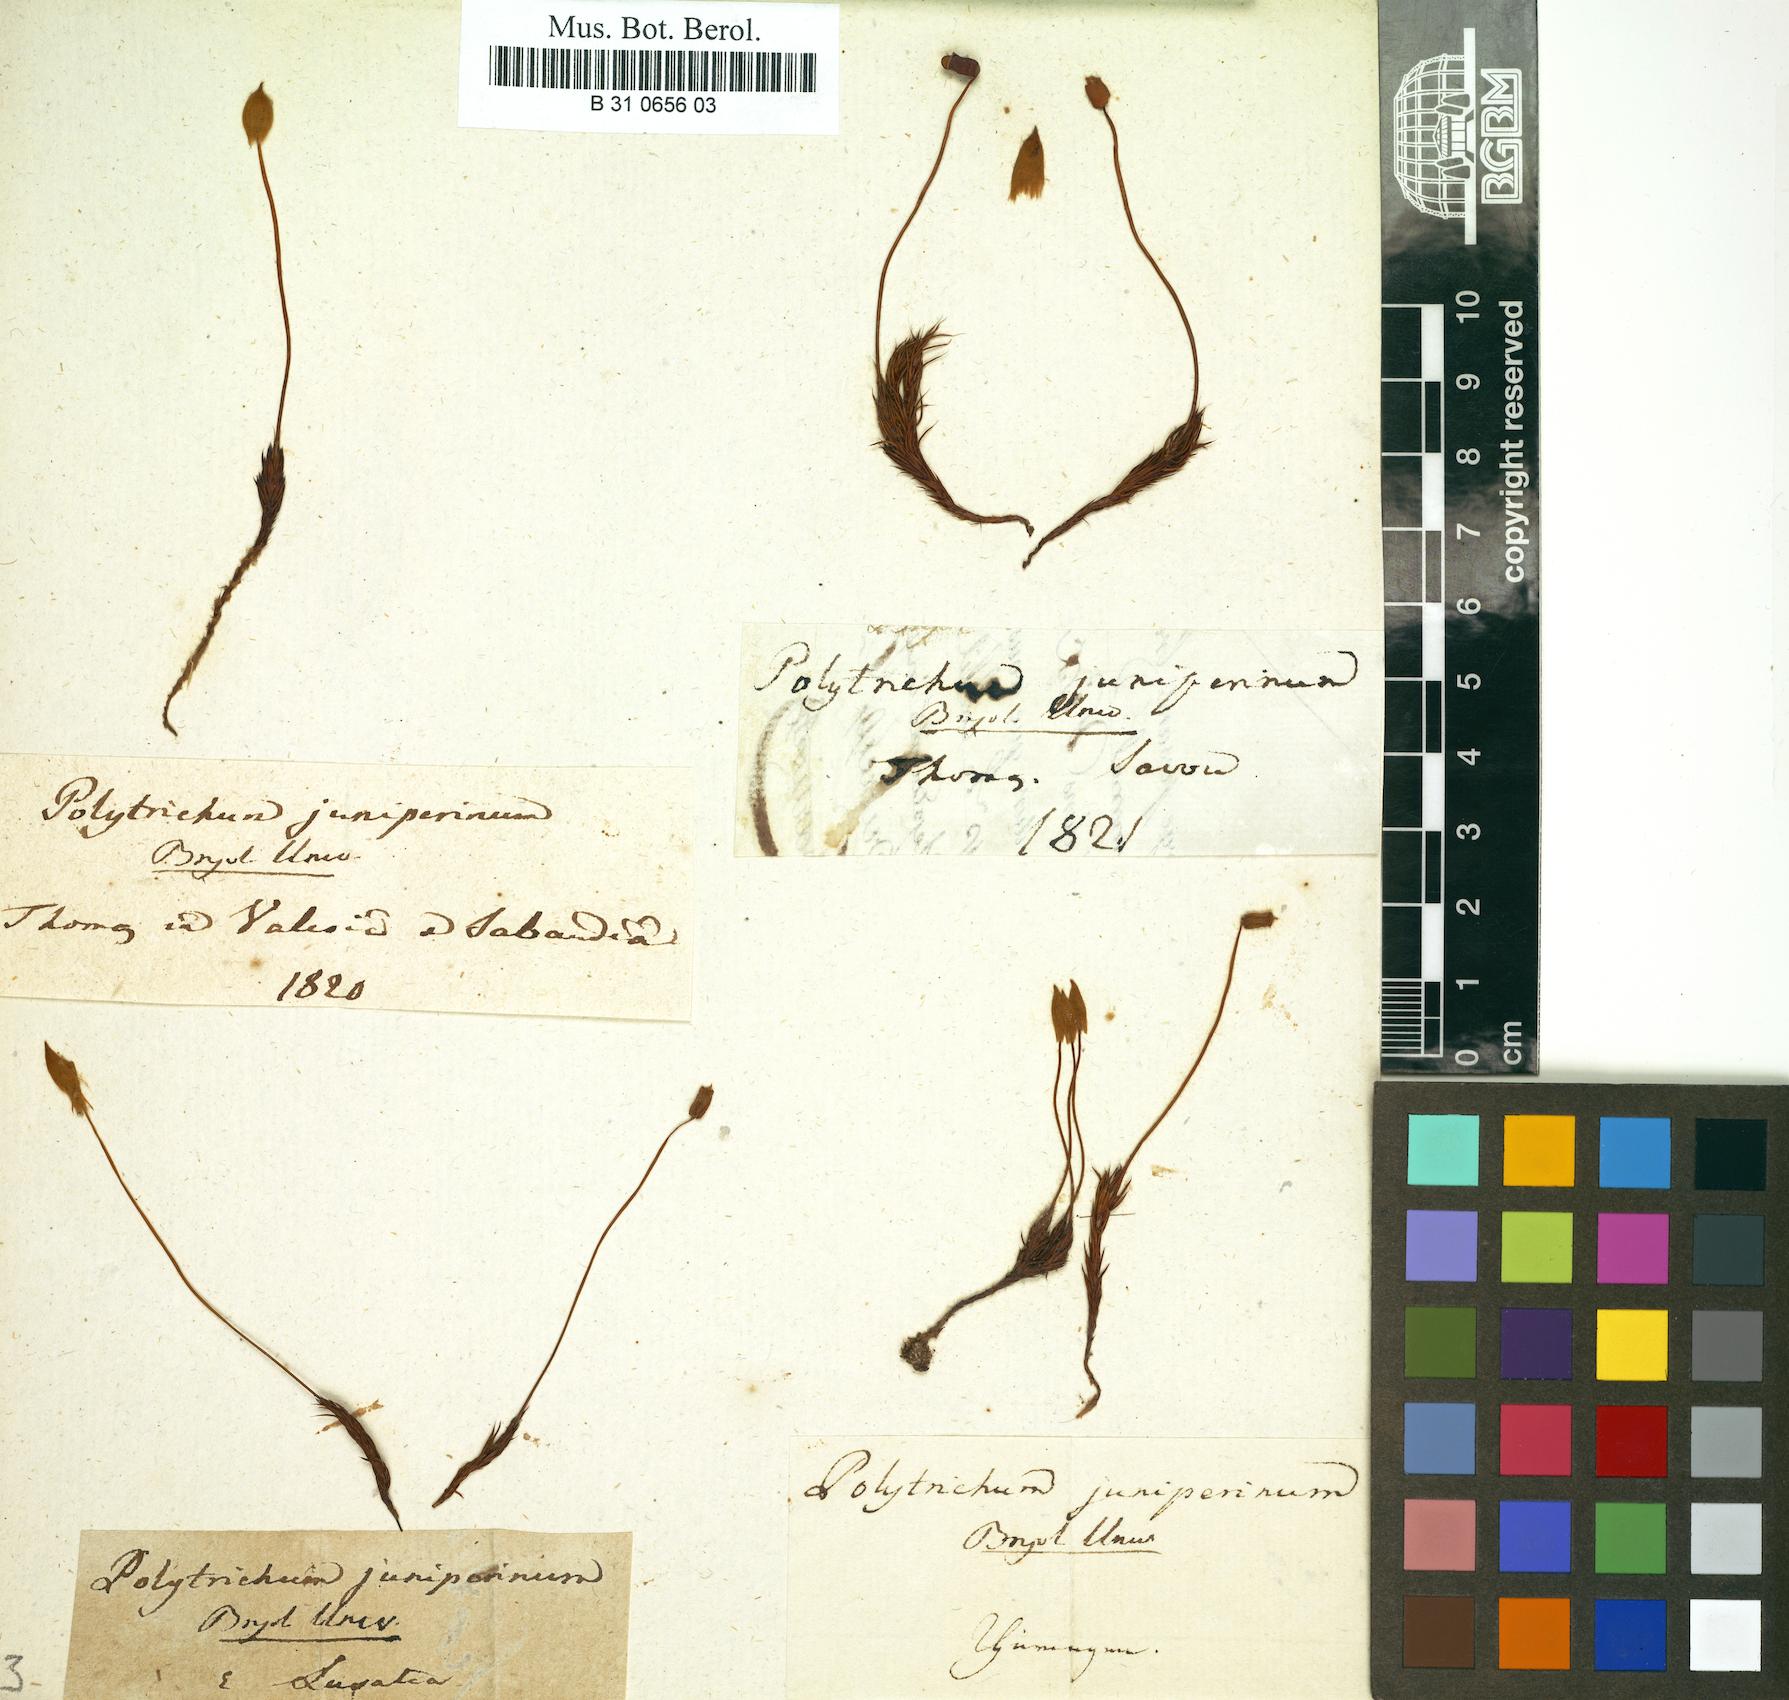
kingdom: Plantae
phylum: Bryophyta
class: Polytrichopsida
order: Polytrichales
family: Polytrichaceae
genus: Polytrichum
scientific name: Polytrichum juniperinum
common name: Juniper haircap moss
